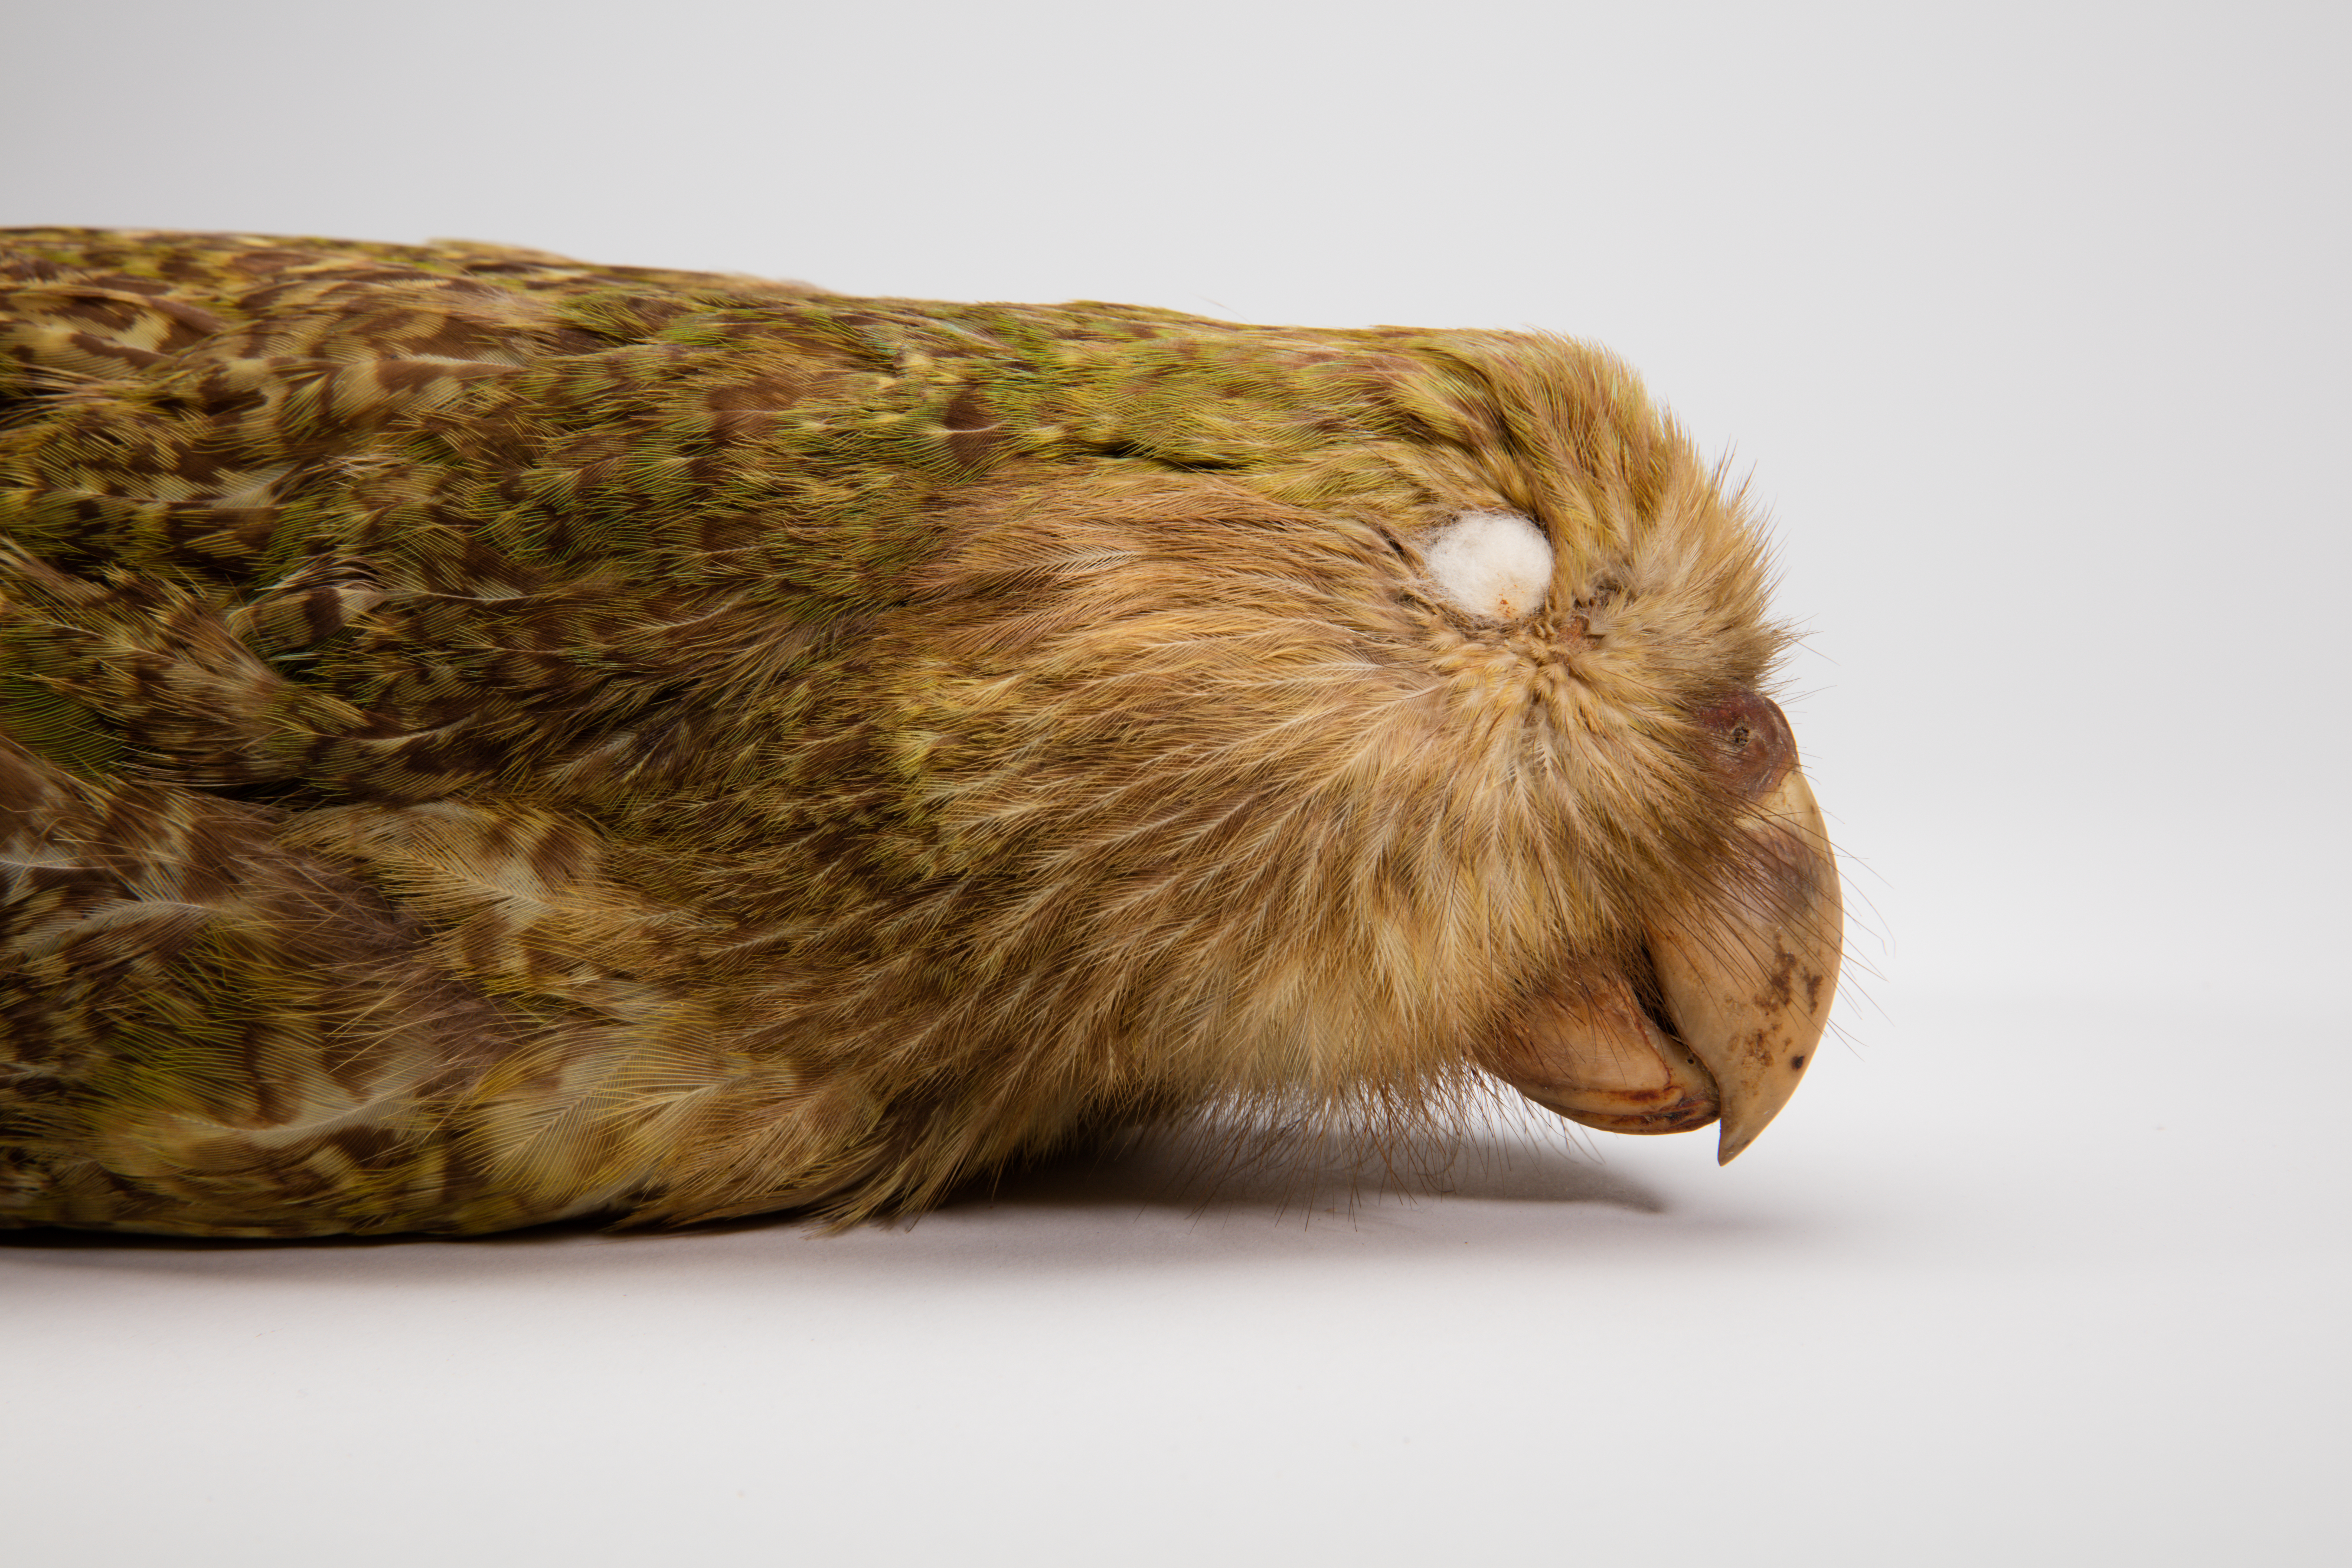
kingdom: Animalia
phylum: Chordata
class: Aves
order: Psittaciformes
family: Psittacidae
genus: Strigops
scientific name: Strigops habroptila
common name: Kakapo
